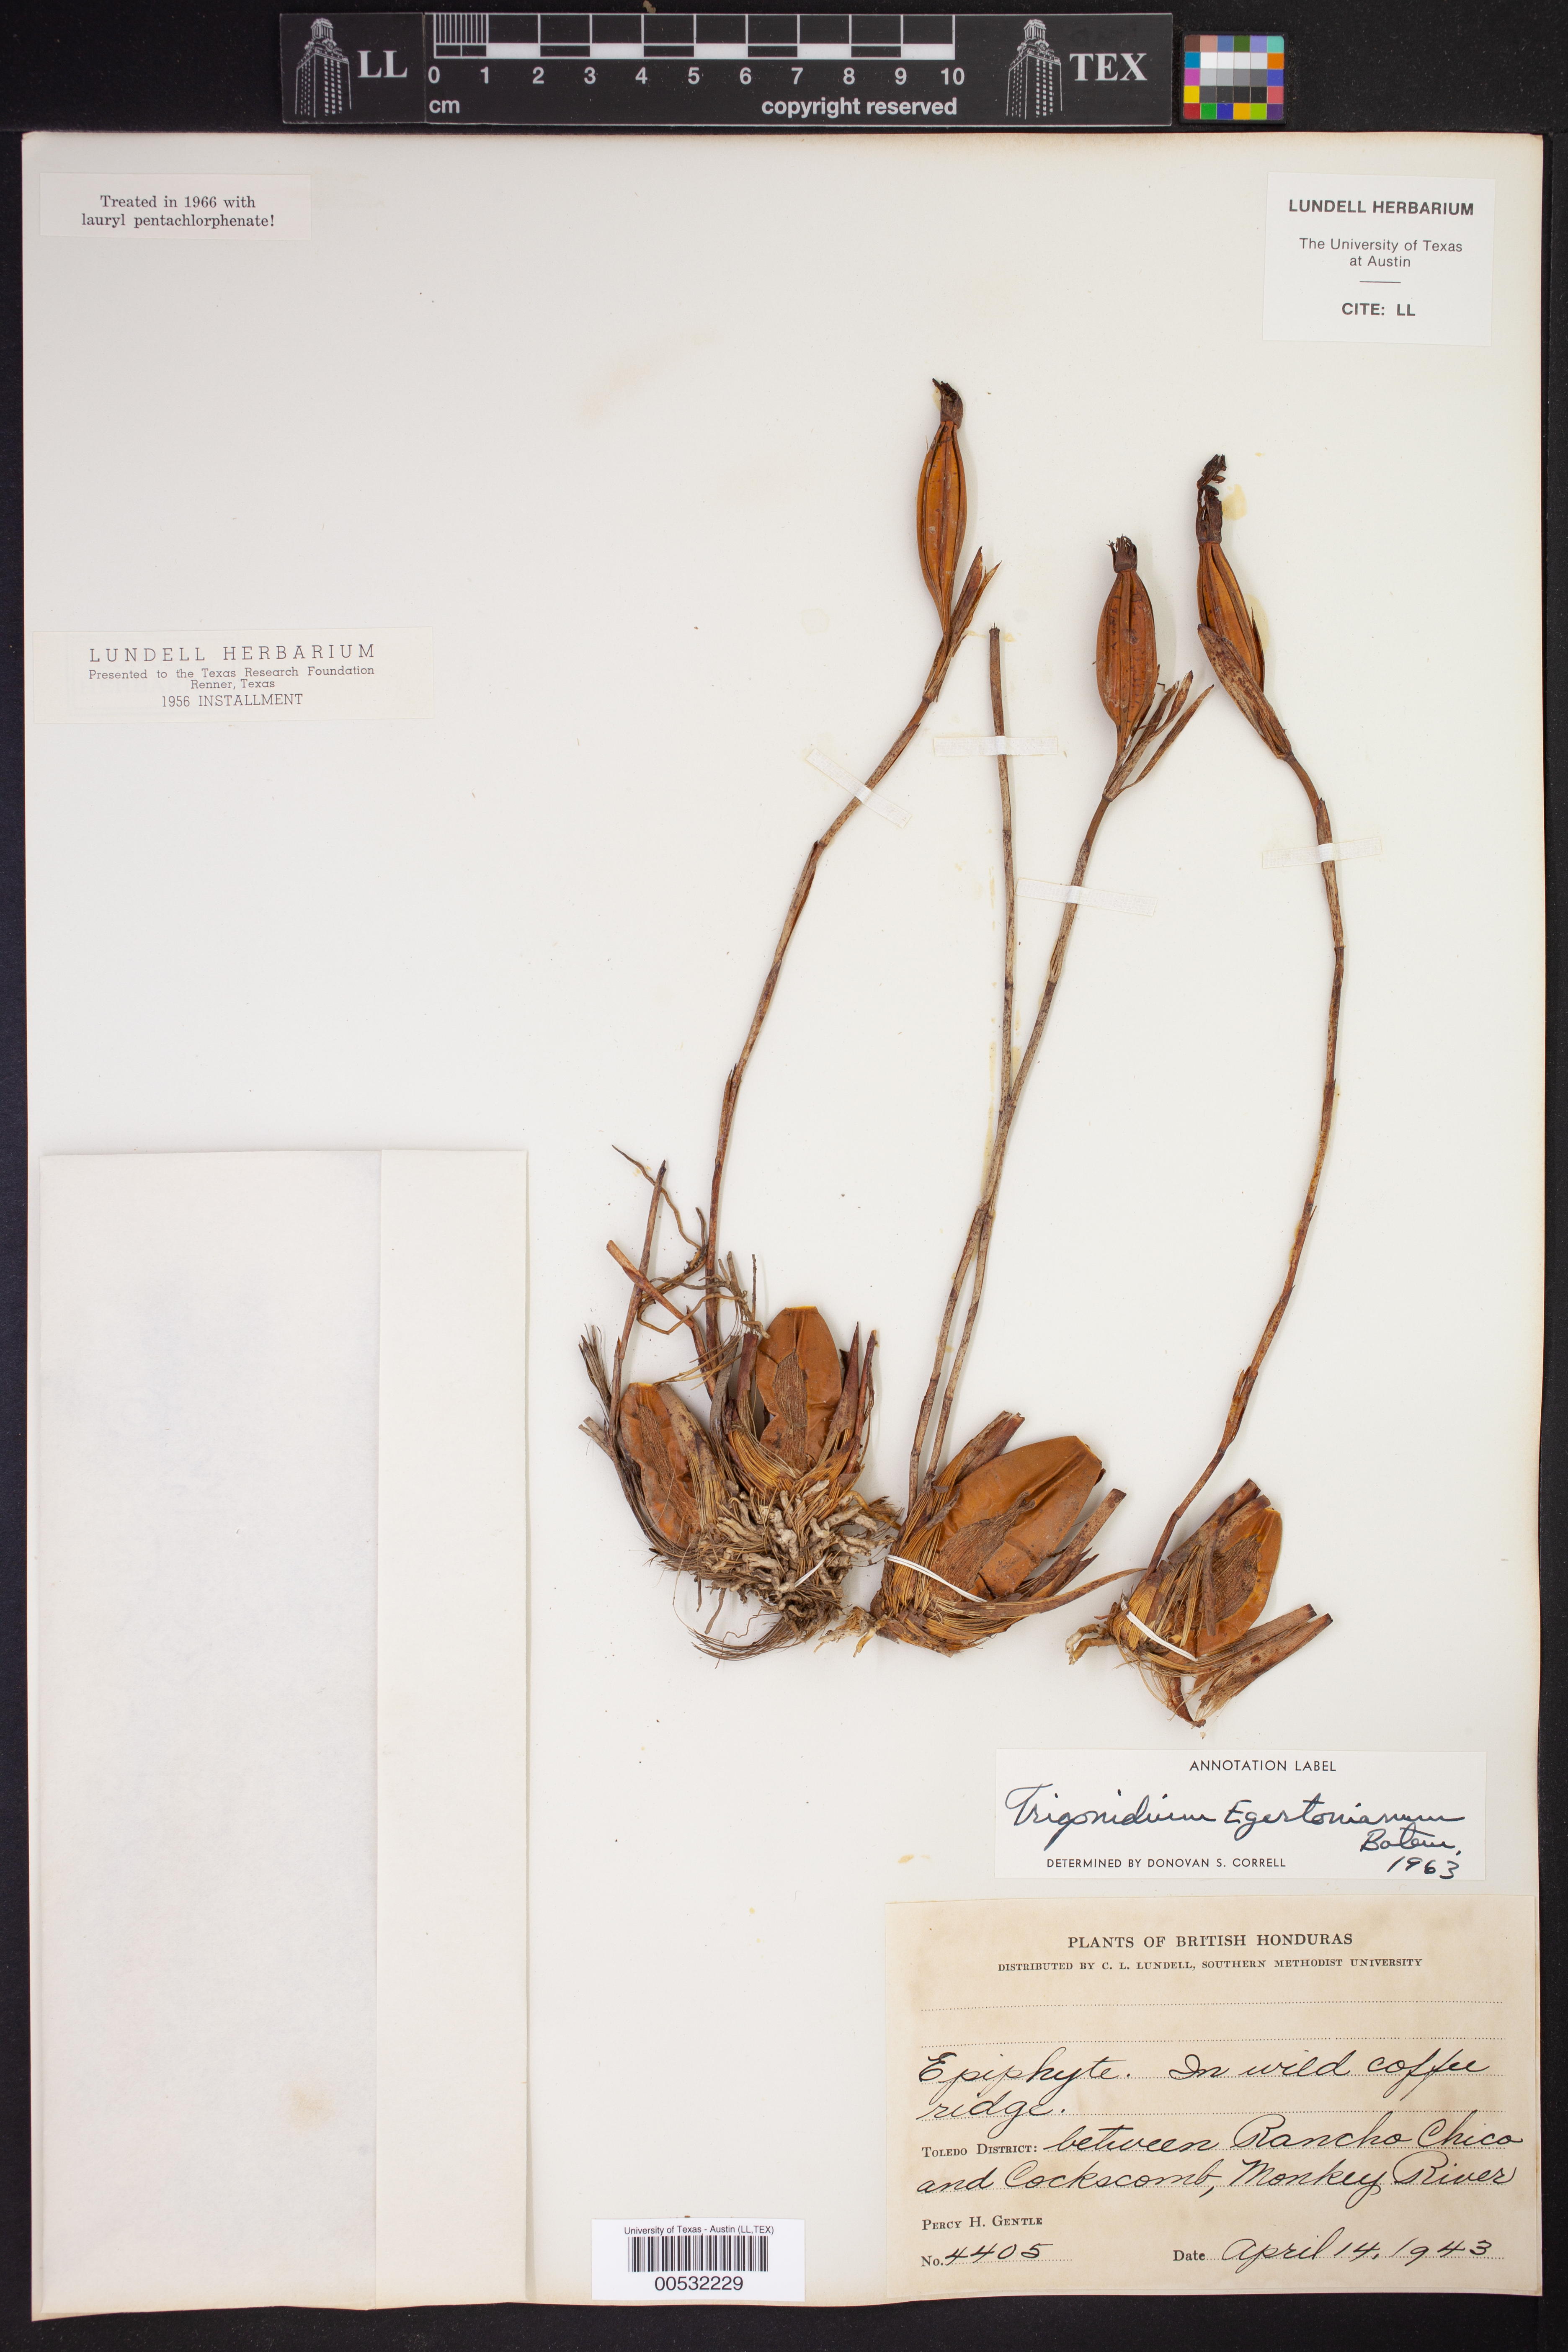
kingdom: Plantae
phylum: Tracheophyta
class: Liliopsida
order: Asparagales
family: Orchidaceae
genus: Maxillaria
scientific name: Maxillaria egertoniana
